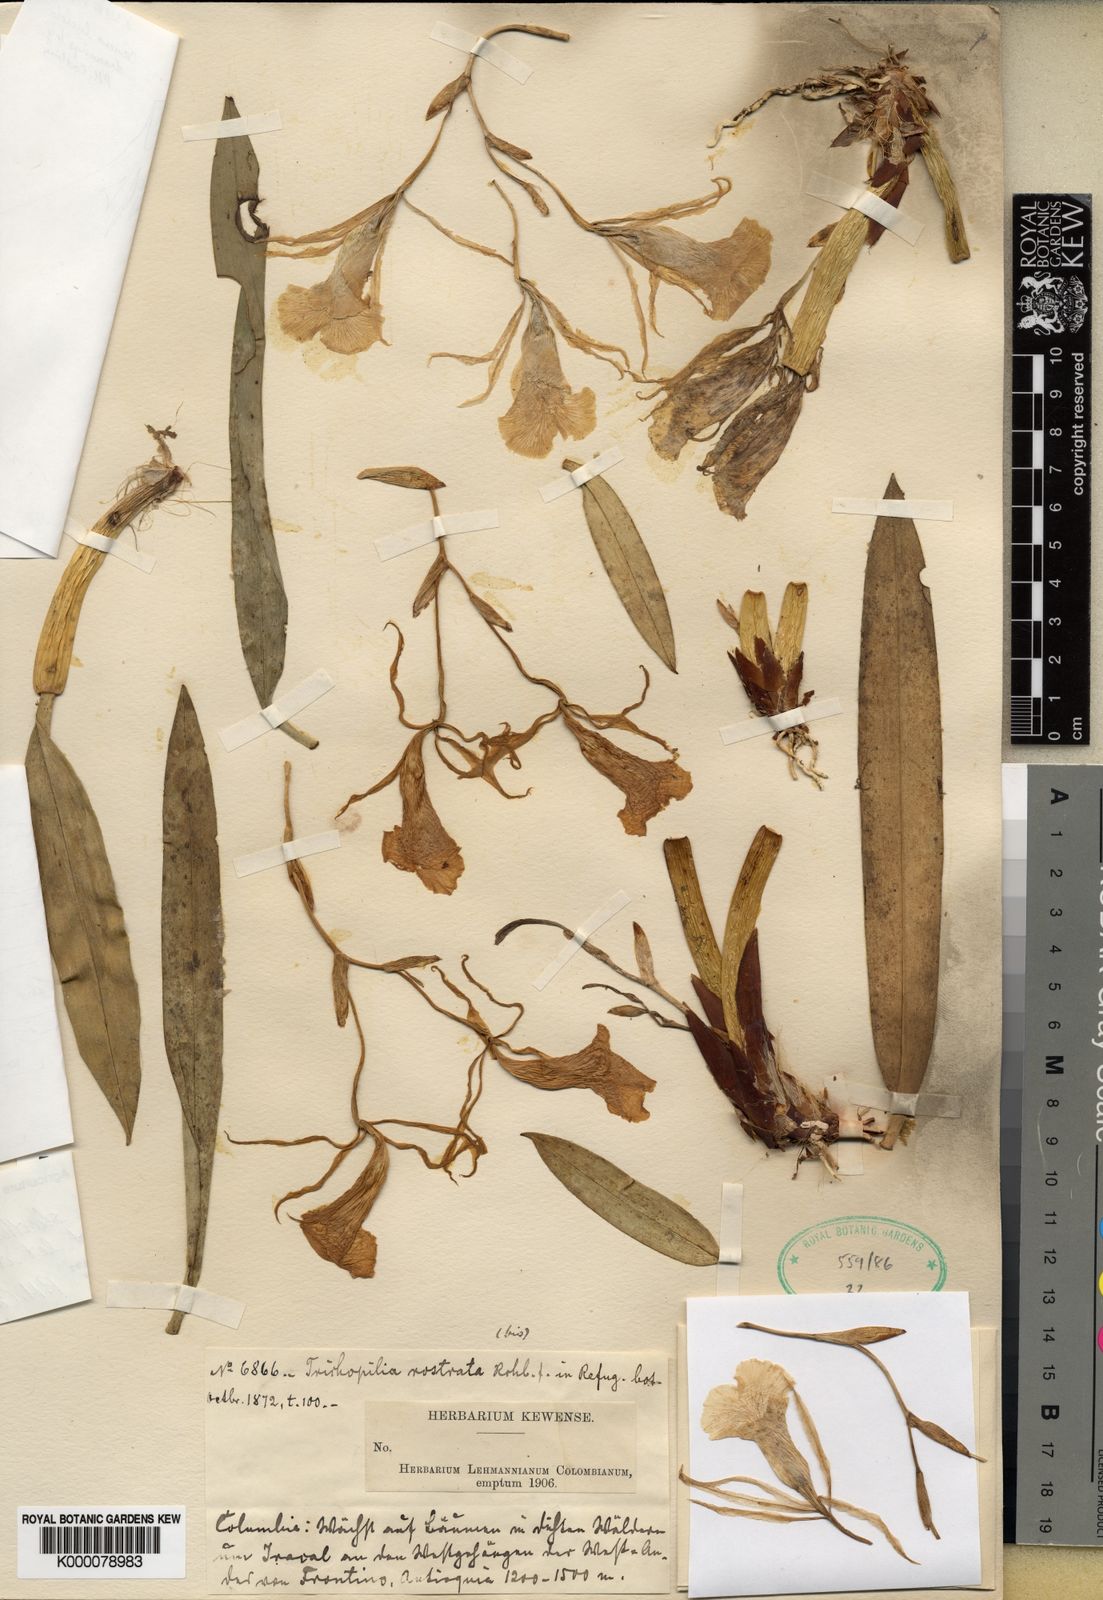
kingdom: Plantae
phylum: Tracheophyta
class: Liliopsida
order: Asparagales
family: Orchidaceae
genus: Trichopilia
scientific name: Trichopilia rostrata
